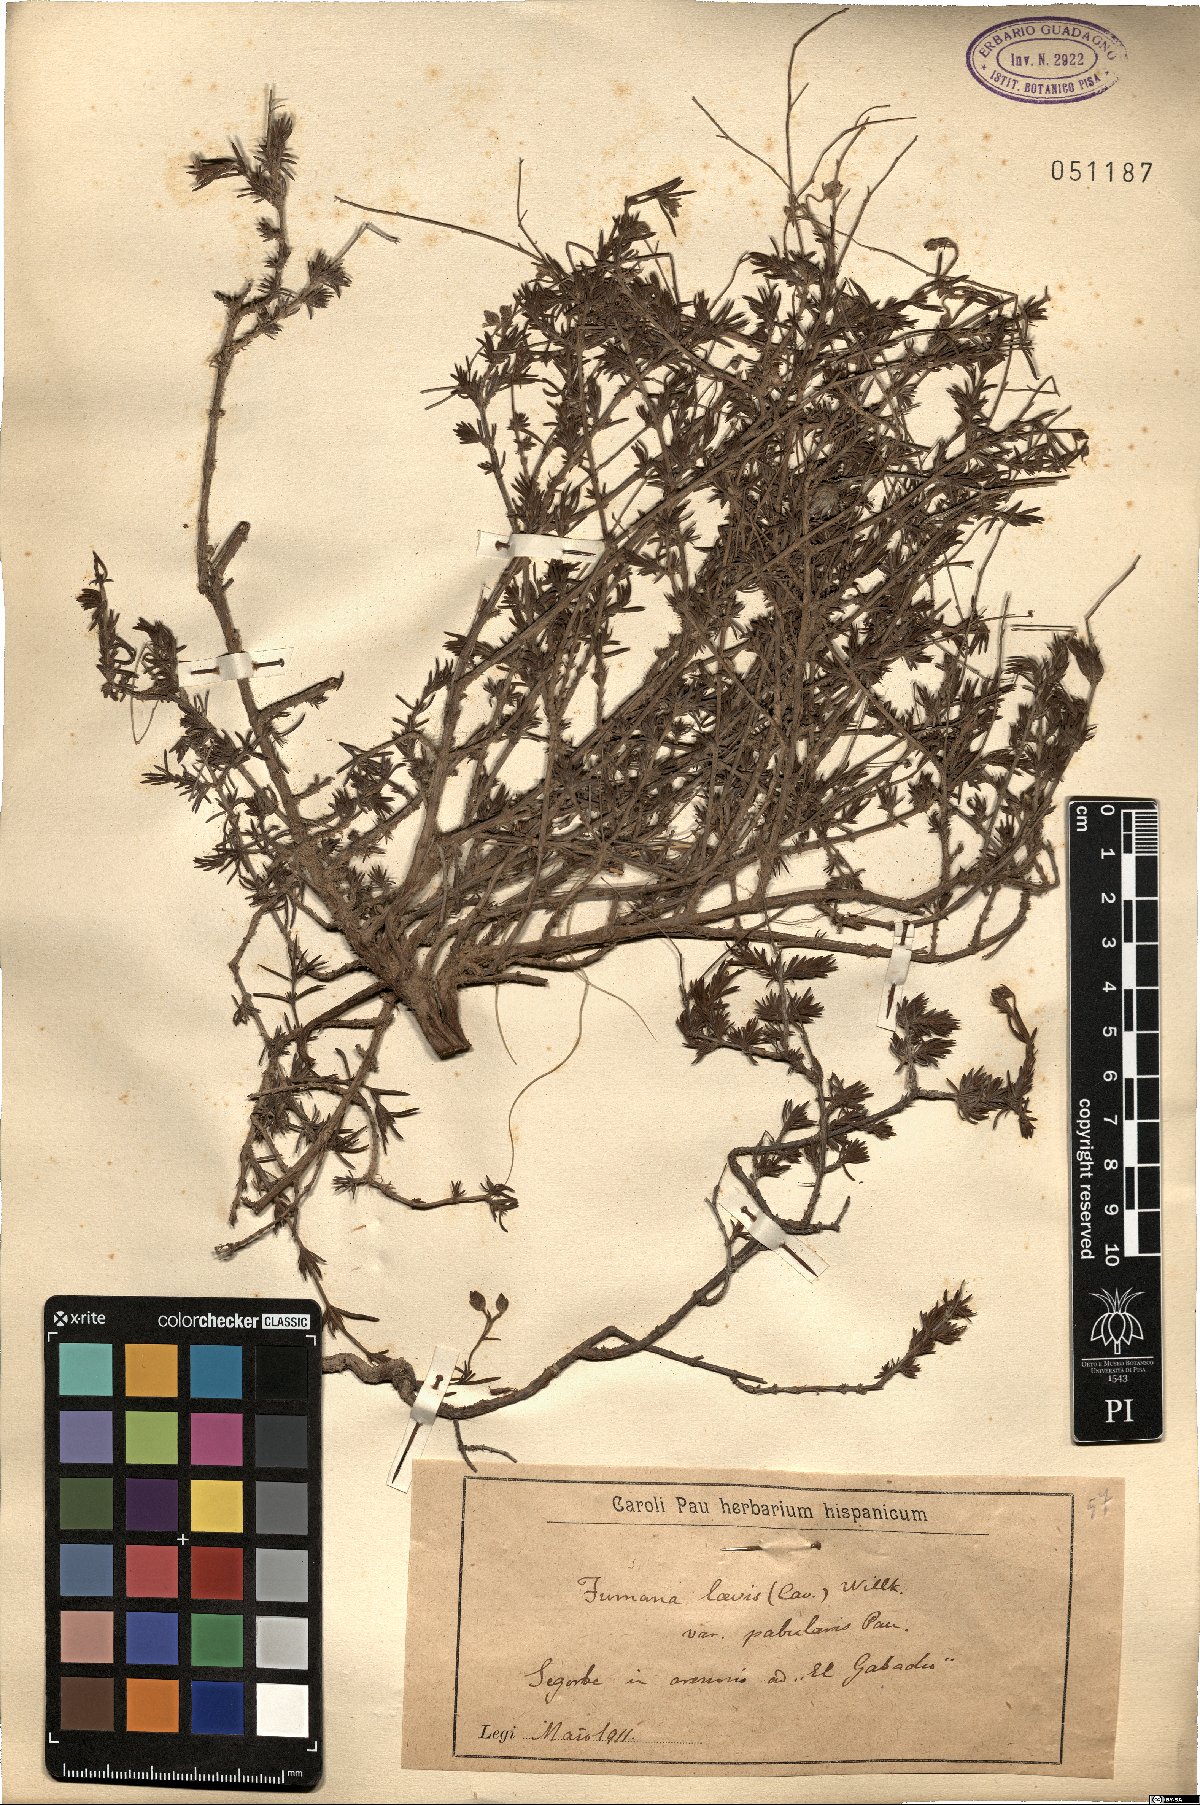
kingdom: Plantae
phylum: Tracheophyta
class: Magnoliopsida
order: Malvales
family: Cistaceae
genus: Fumana
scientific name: Fumana laevis
